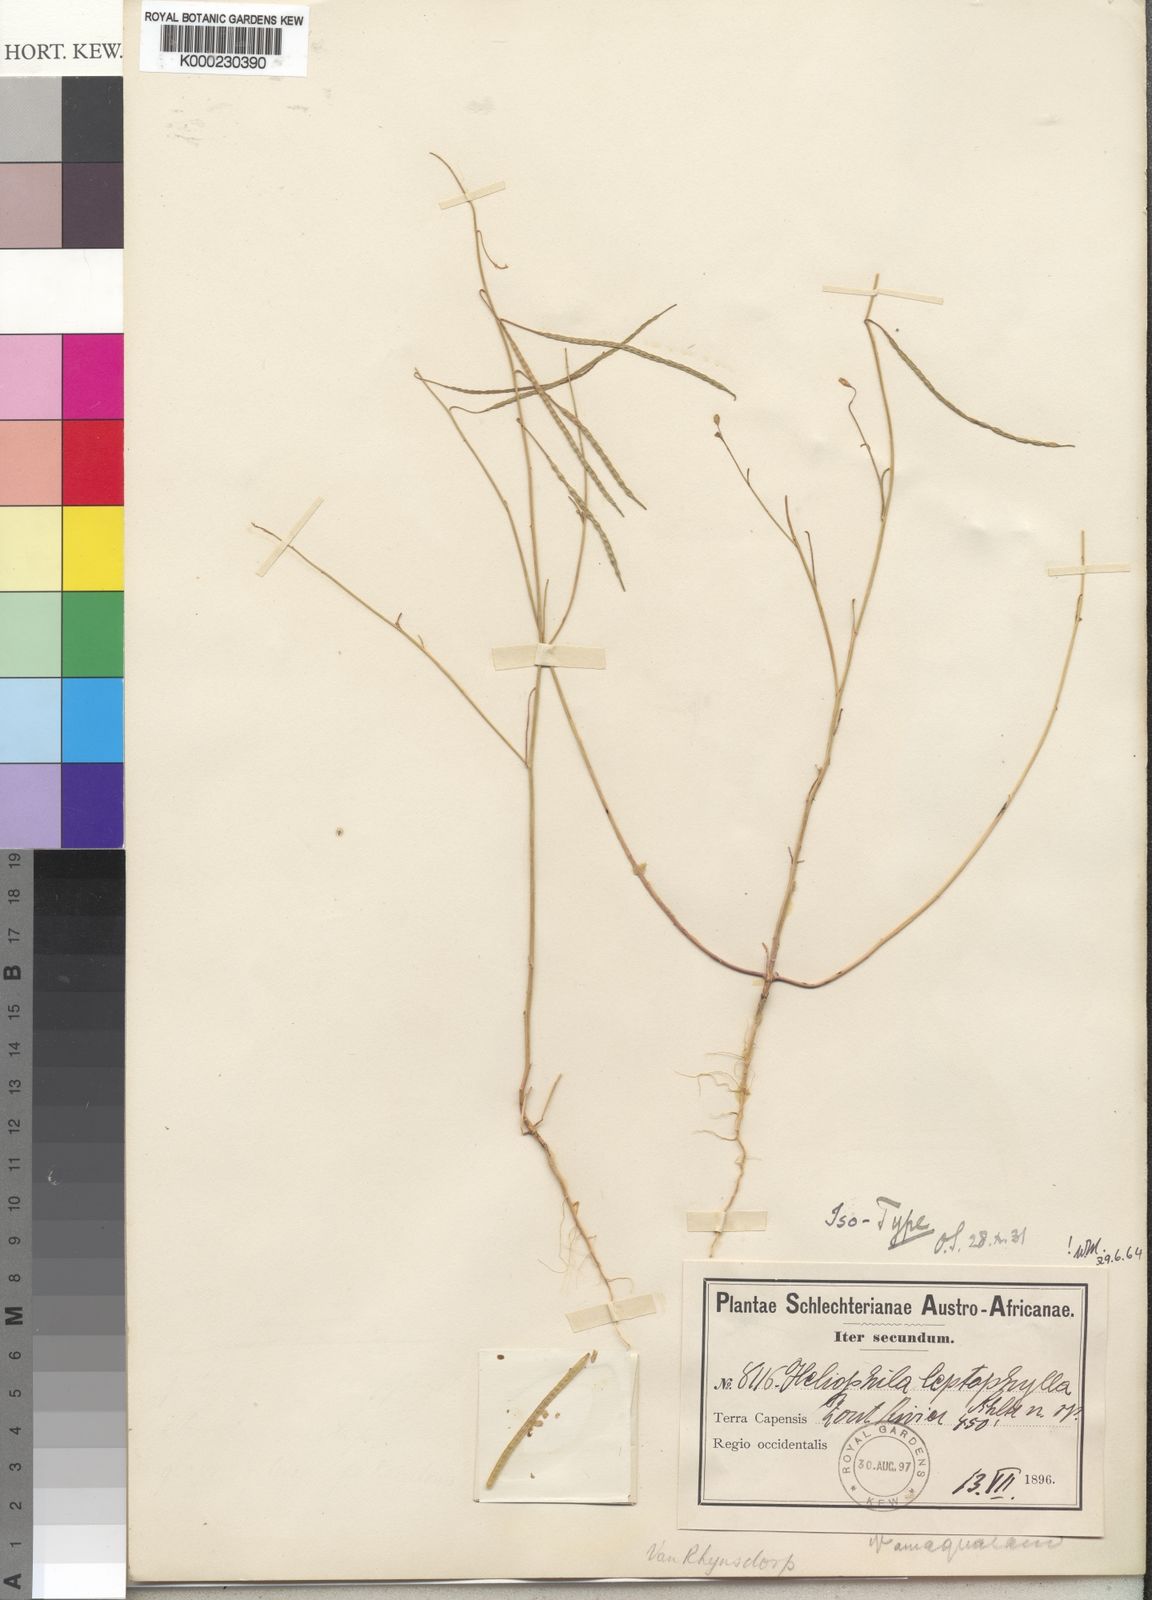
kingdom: Plantae
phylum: Tracheophyta
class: Magnoliopsida
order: Brassicales
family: Brassicaceae
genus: Heliophila
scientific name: Heliophila leptophylla
